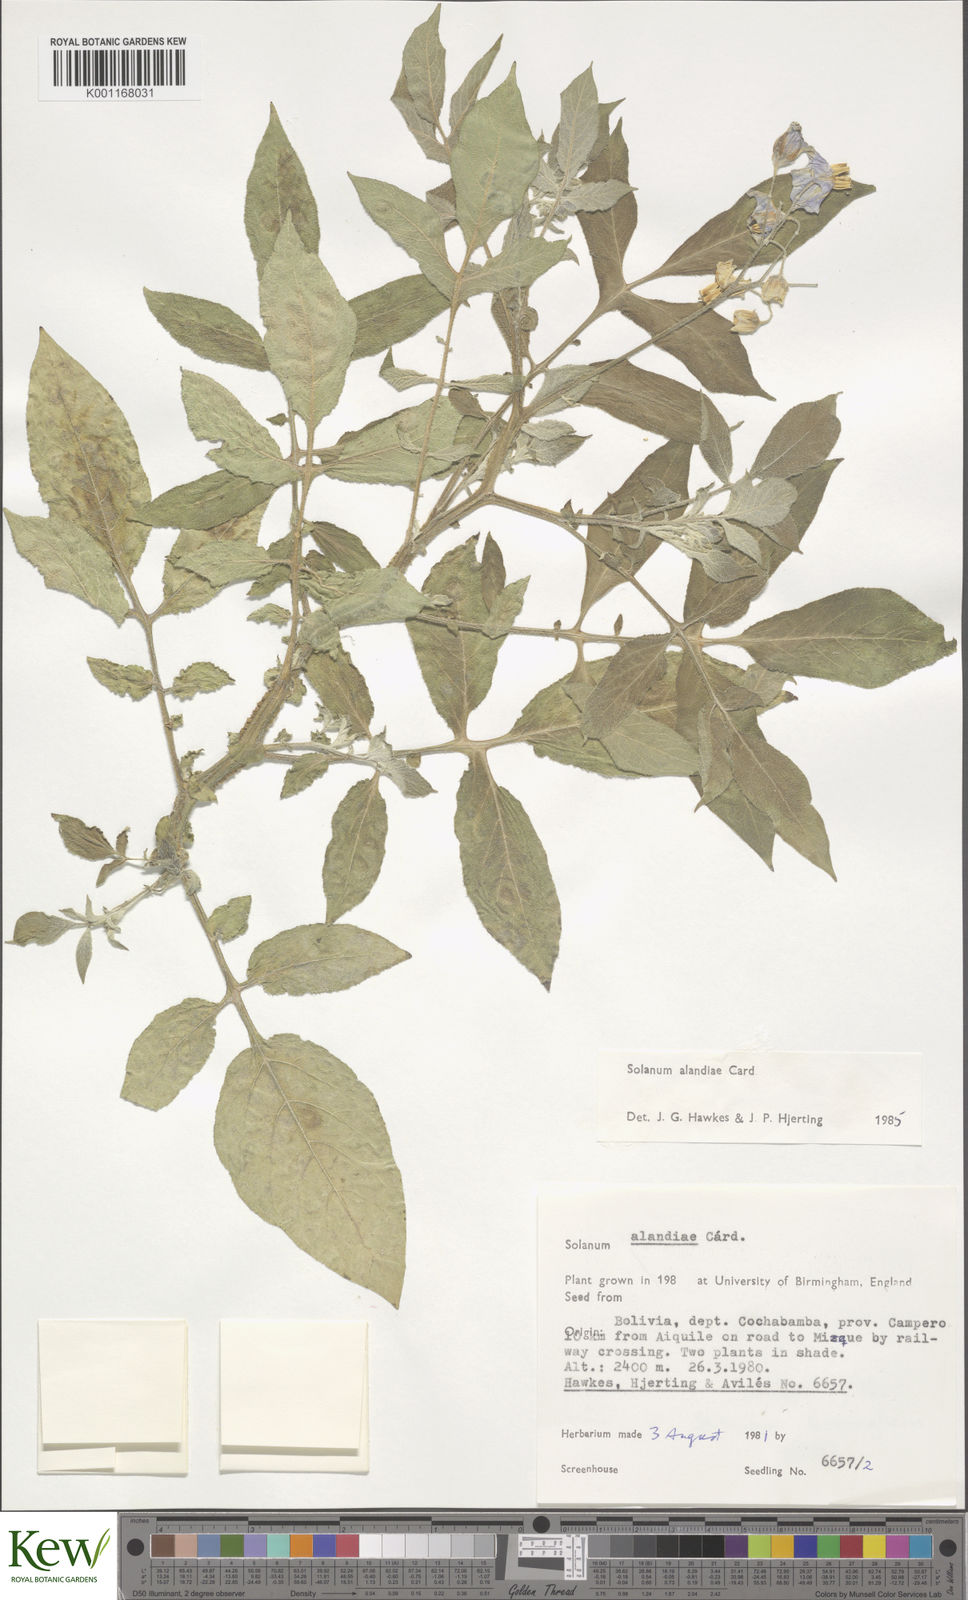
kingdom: Plantae
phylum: Tracheophyta
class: Magnoliopsida
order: Solanales
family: Solanaceae
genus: Solanum
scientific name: Solanum
